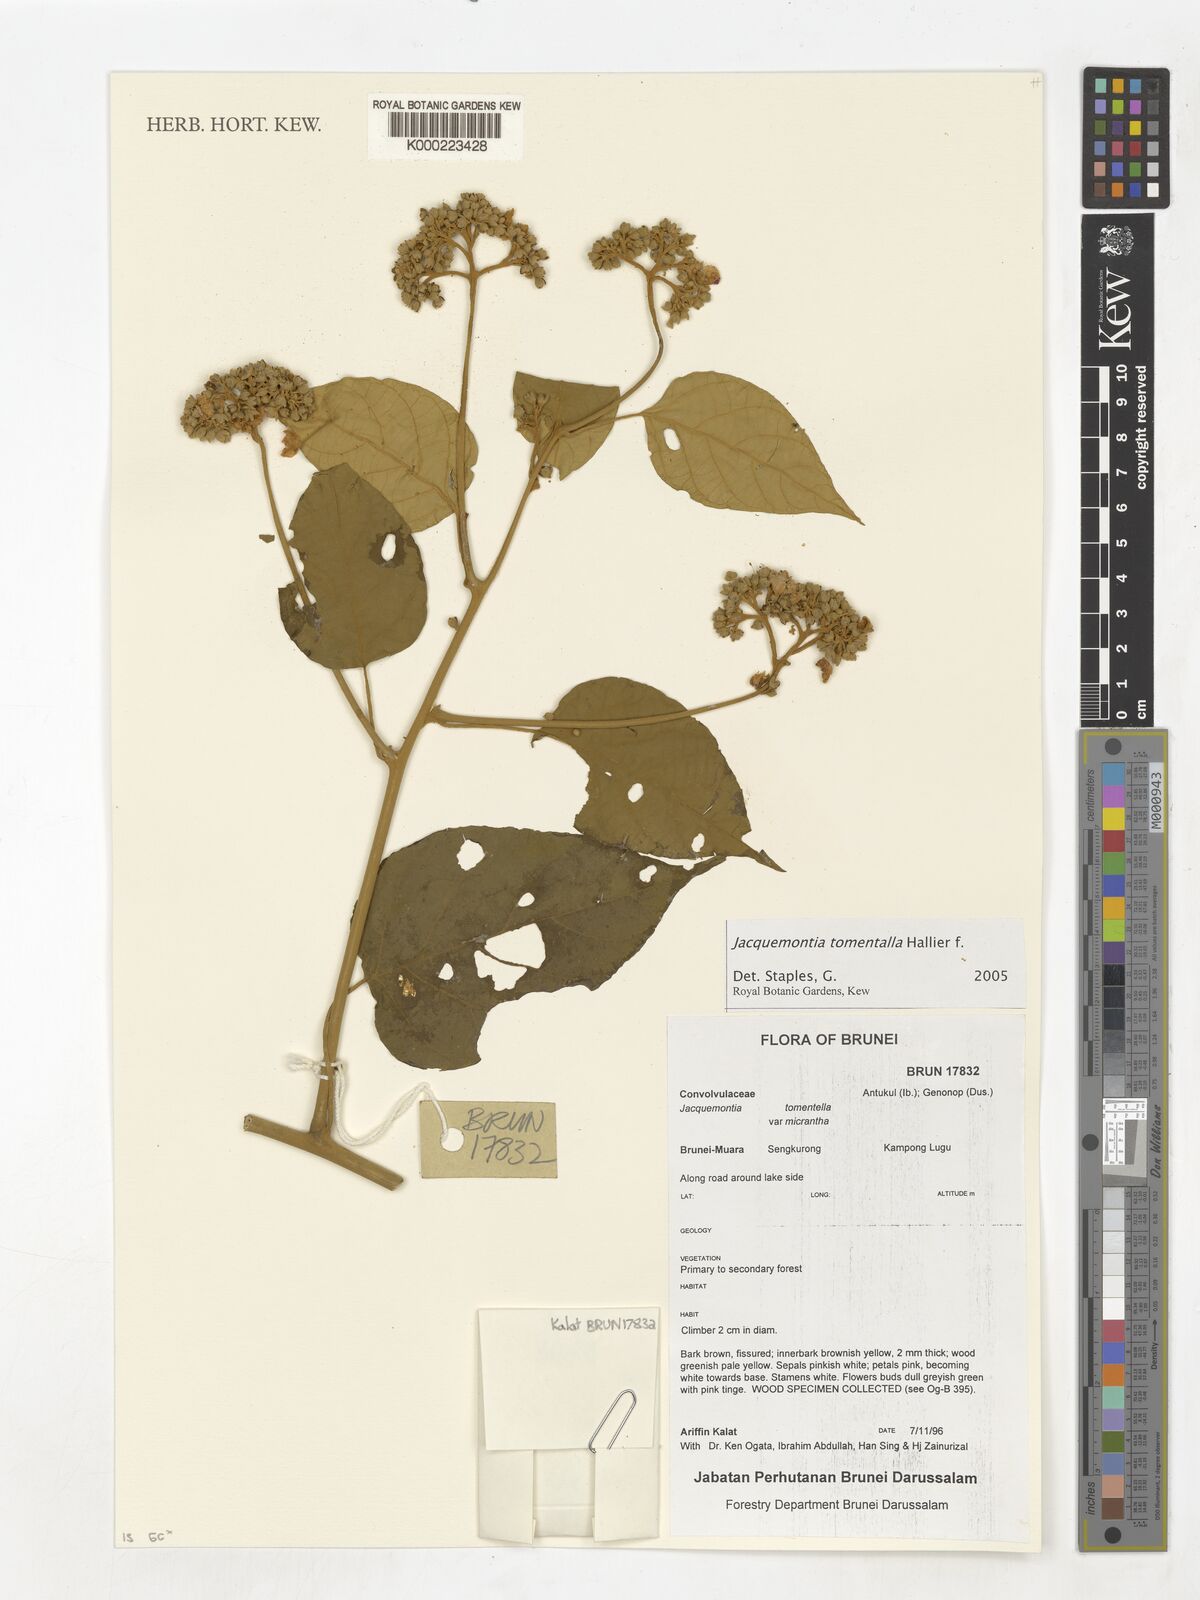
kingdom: Plantae
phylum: Tracheophyta
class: Magnoliopsida
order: Solanales
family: Convolvulaceae
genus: Jacquemontia
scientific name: Jacquemontia
